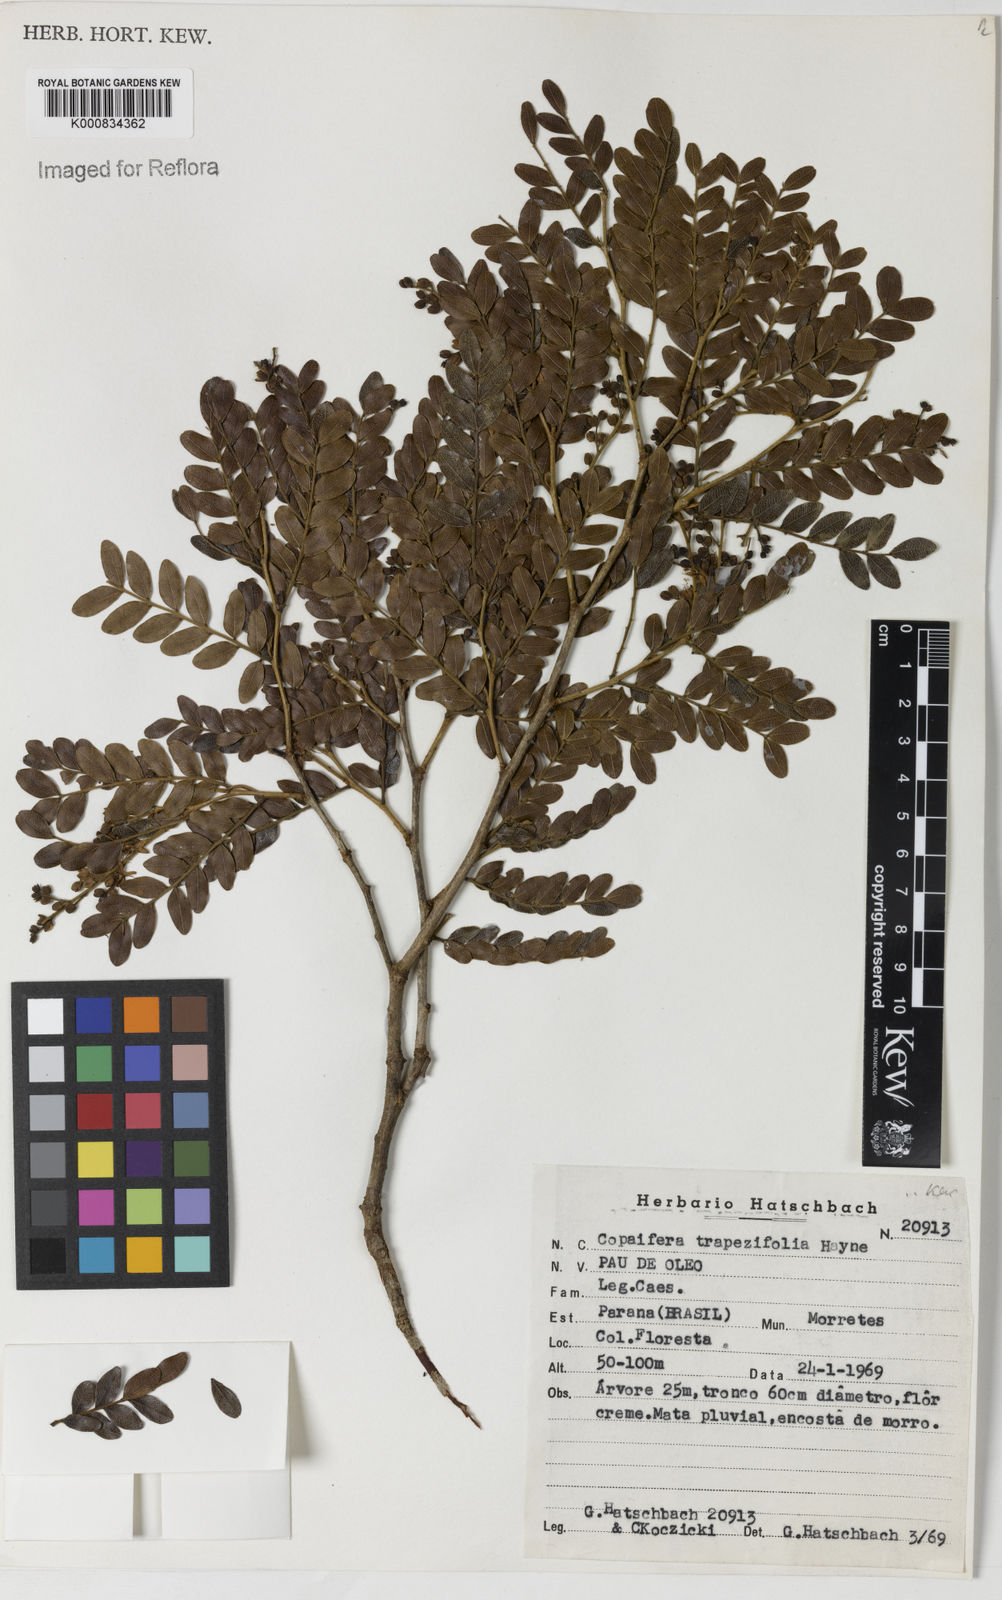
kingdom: Plantae
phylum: Tracheophyta
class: Magnoliopsida
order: Fabales
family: Fabaceae
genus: Copaifera
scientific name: Copaifera trapezifolia
